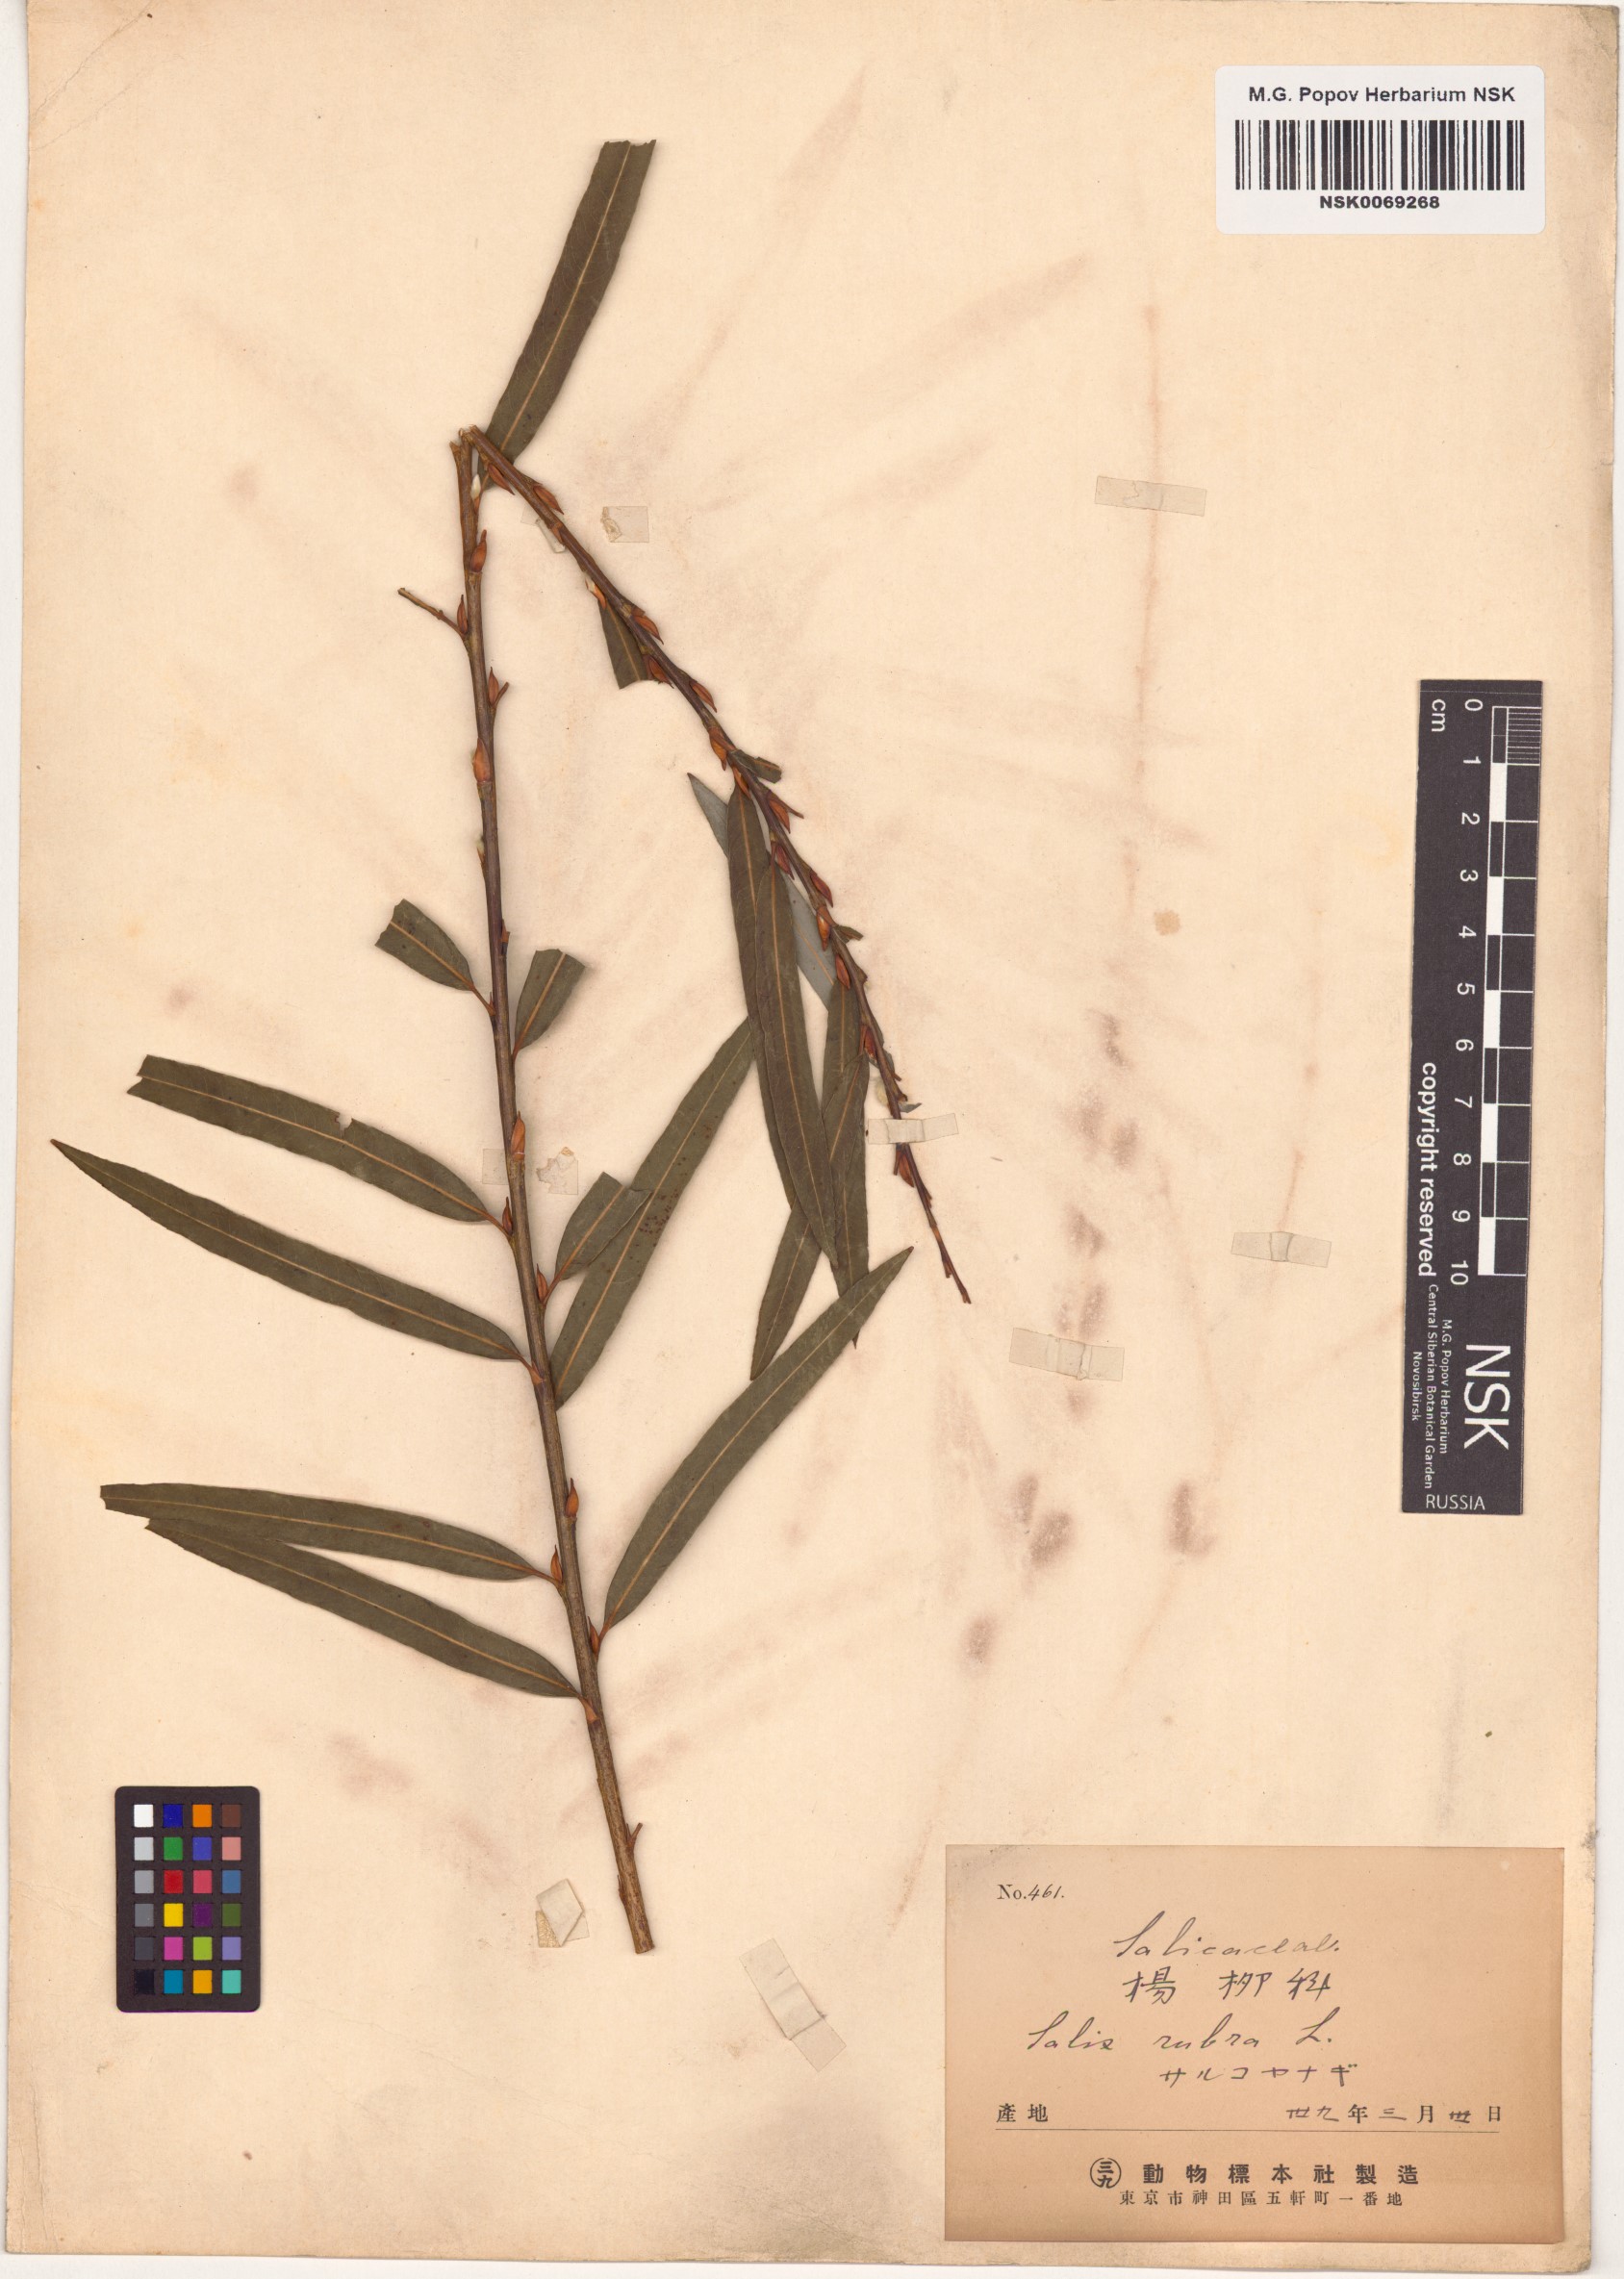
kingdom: Plantae
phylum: Tracheophyta
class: Magnoliopsida
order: Malpighiales
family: Salicaceae
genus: Salix
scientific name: Salix purpurea
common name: Purple willow
